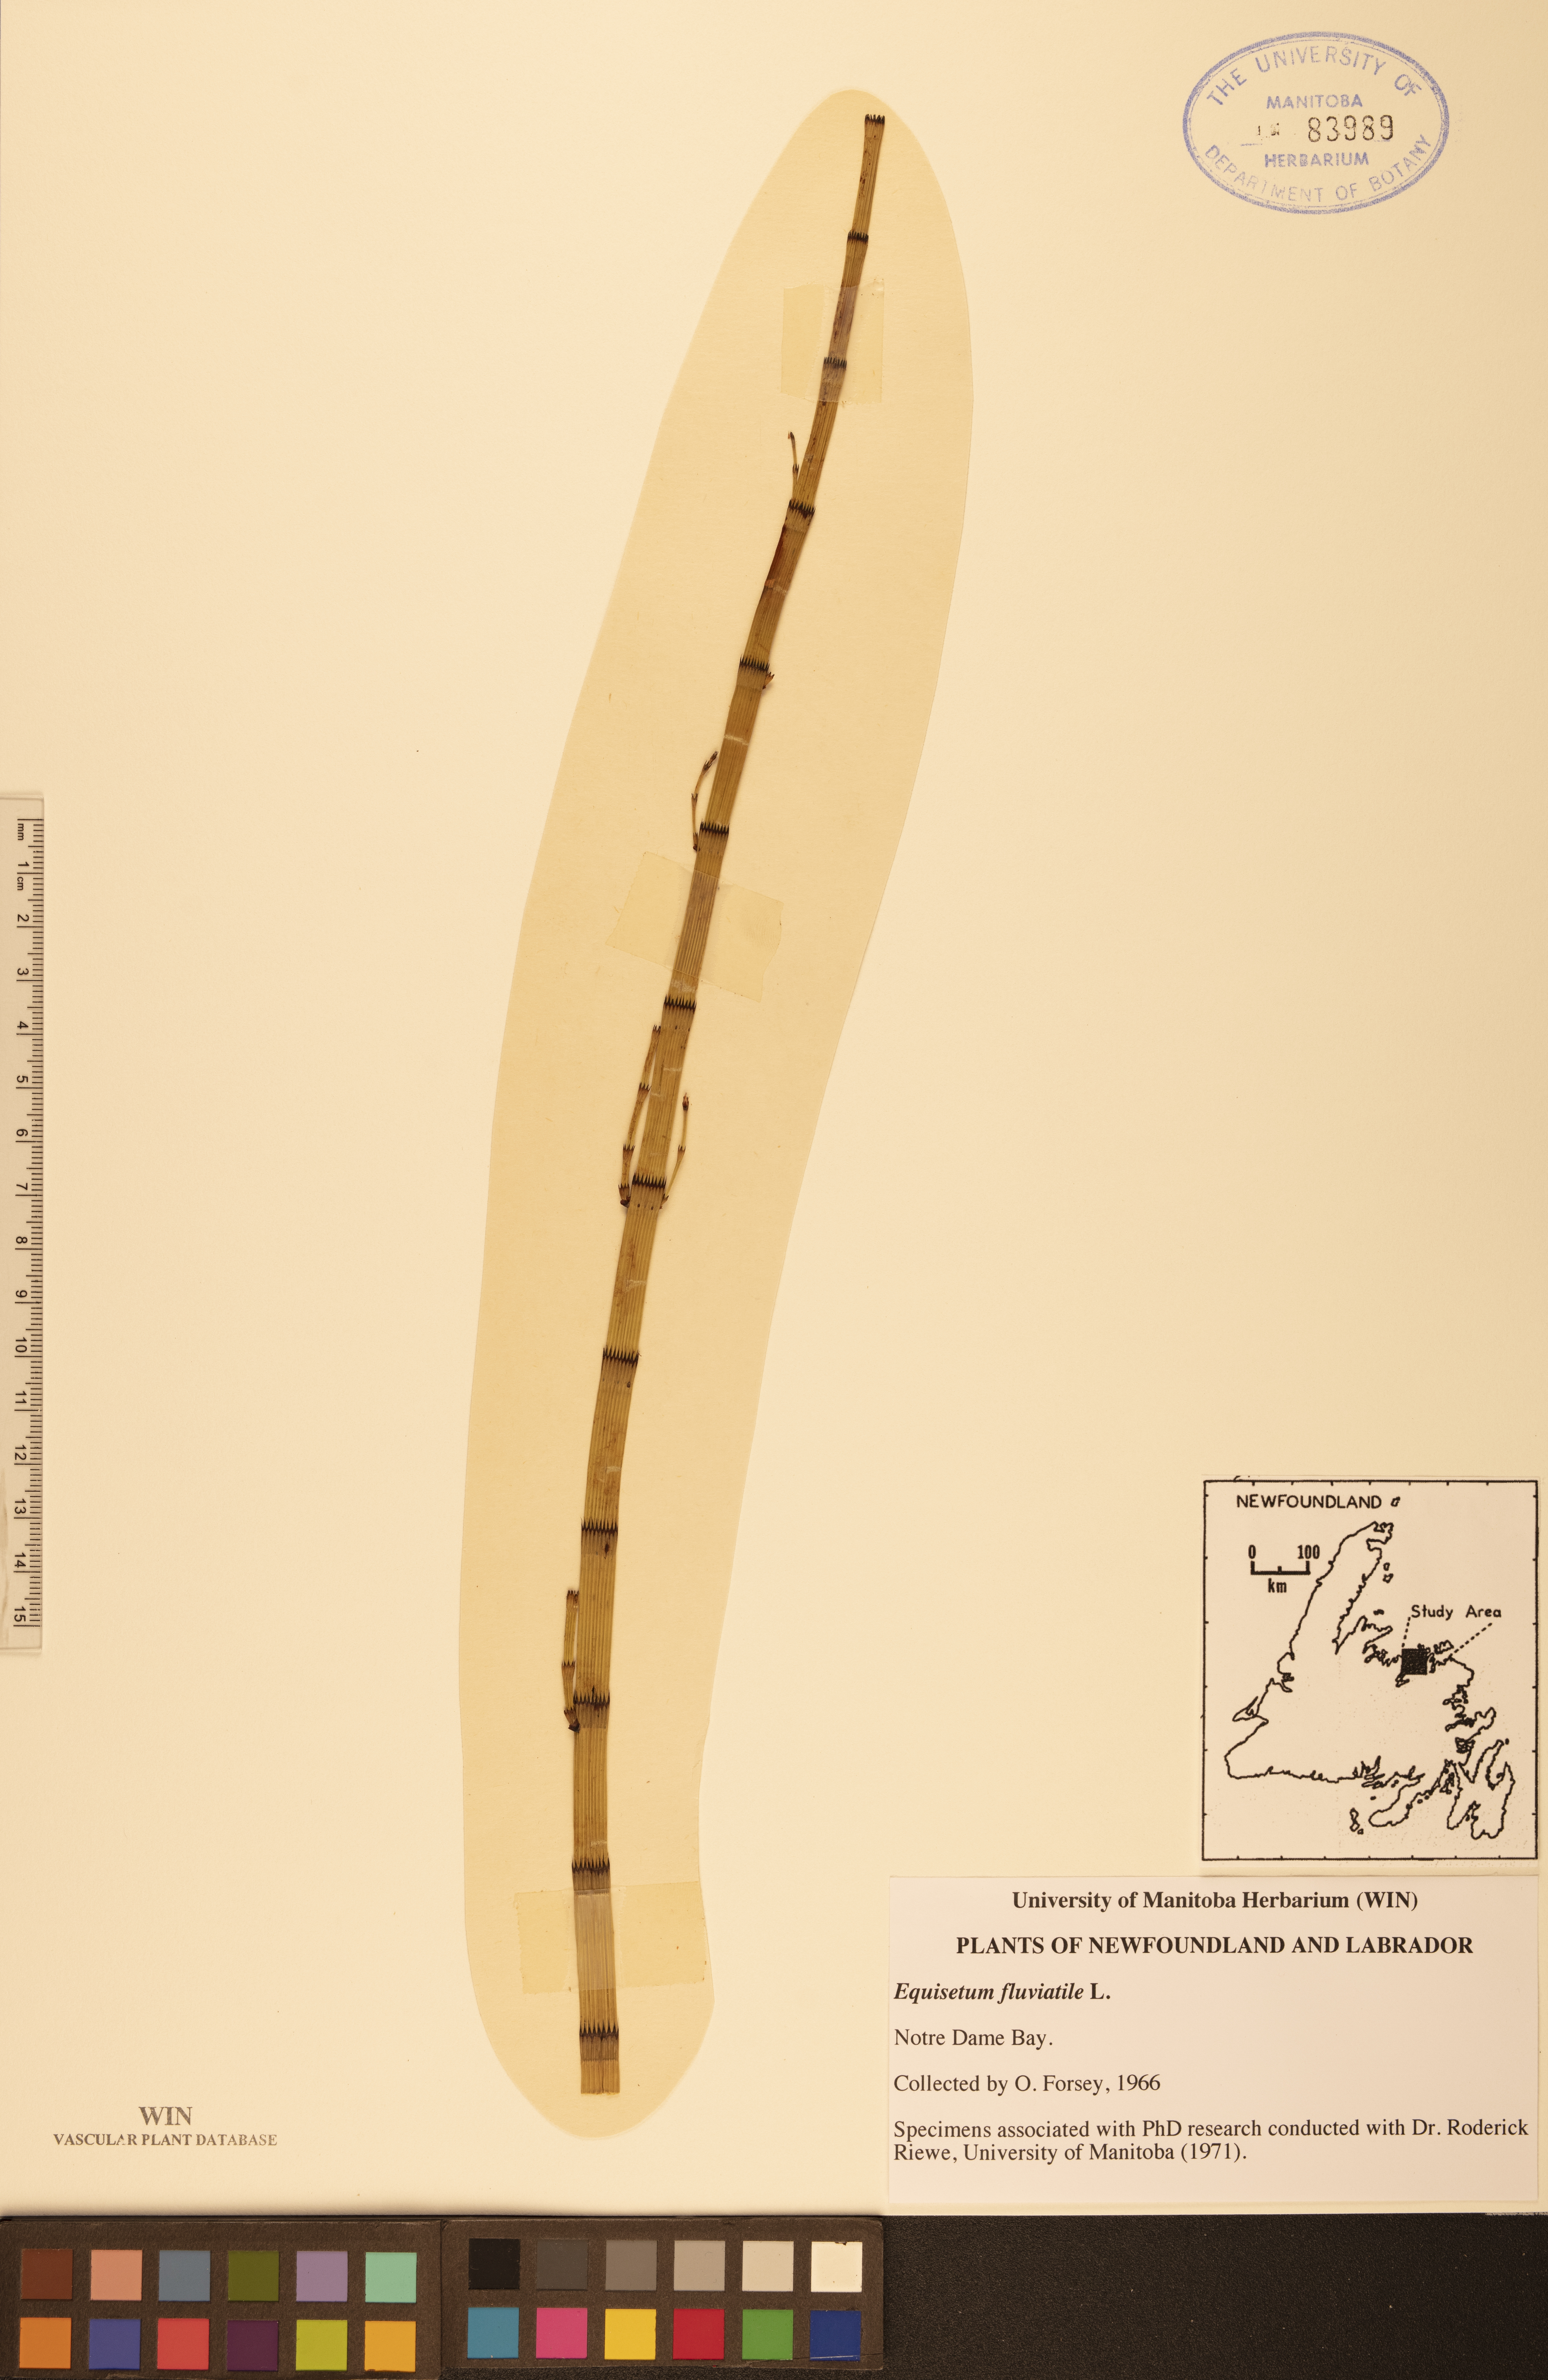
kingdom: Plantae
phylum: Tracheophyta
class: Polypodiopsida
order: Equisetales
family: Equisetaceae
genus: Equisetum
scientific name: Equisetum fluviatile
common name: Water horsetail
